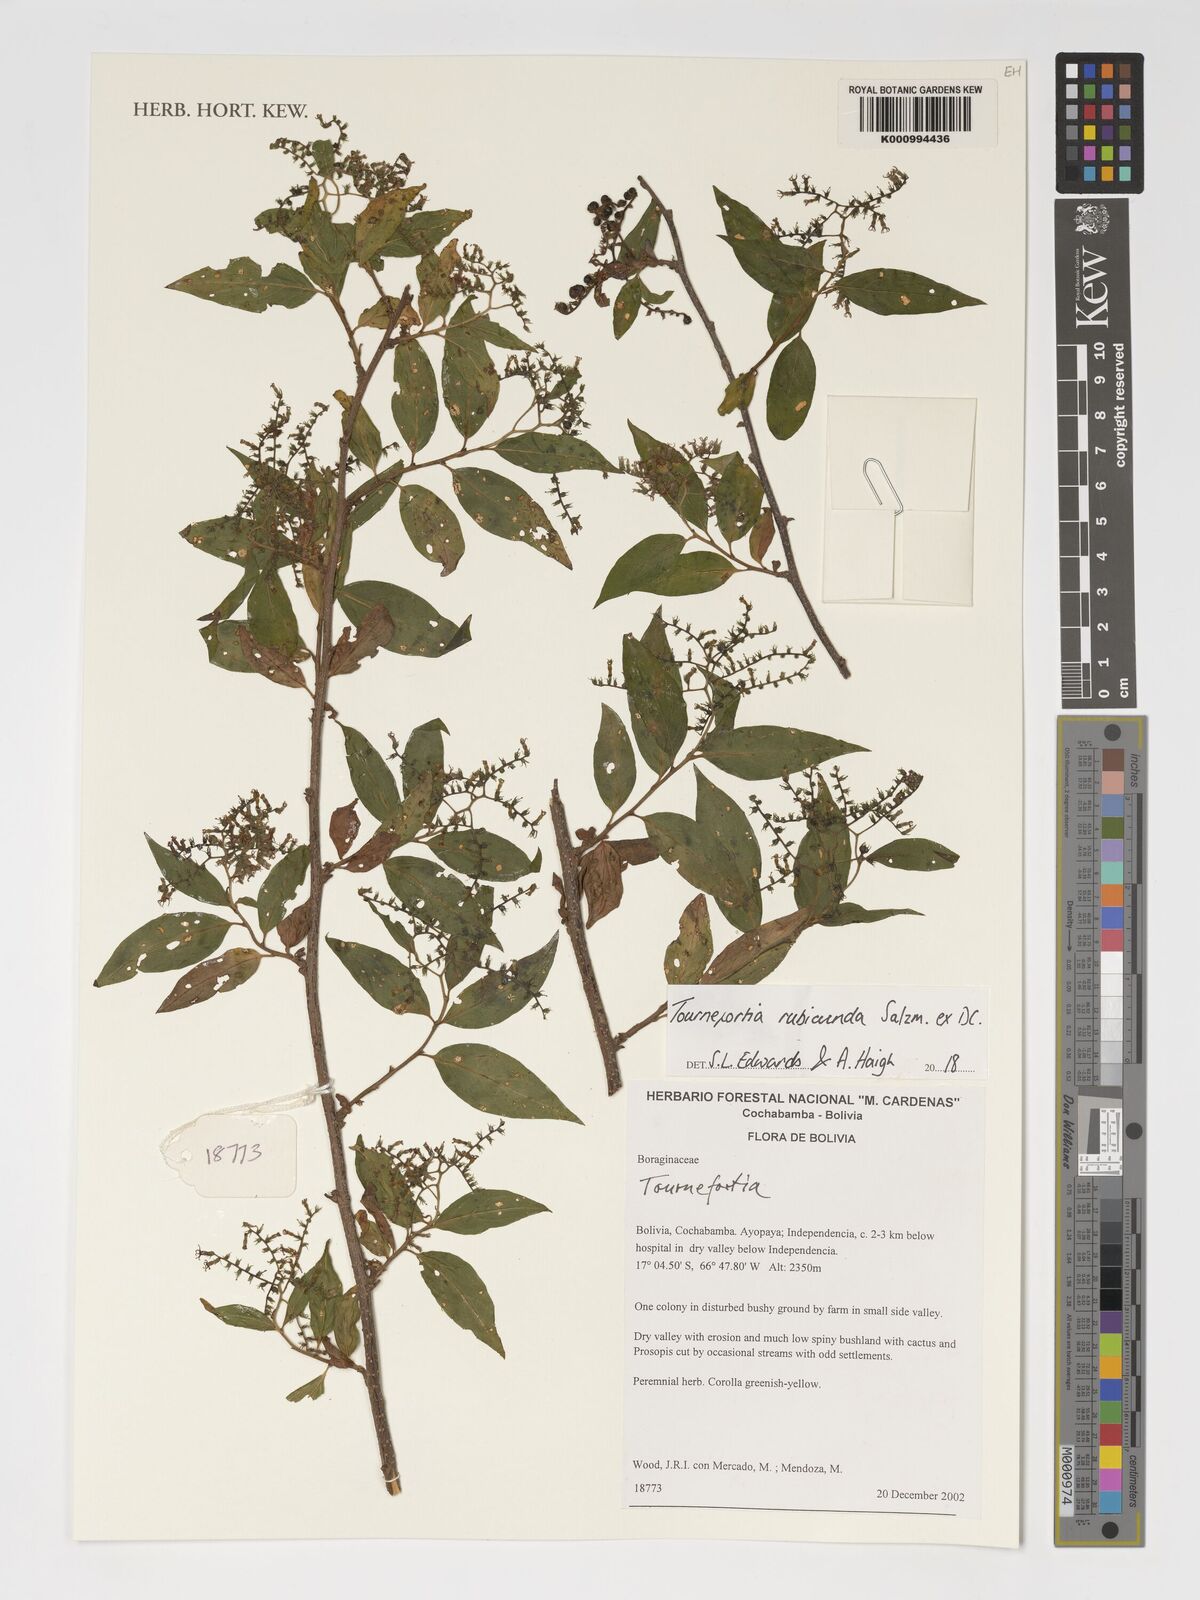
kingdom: Plantae
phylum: Tracheophyta
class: Magnoliopsida
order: Boraginales
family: Heliotropiaceae
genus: Myriopus
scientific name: Myriopus rubicundus
